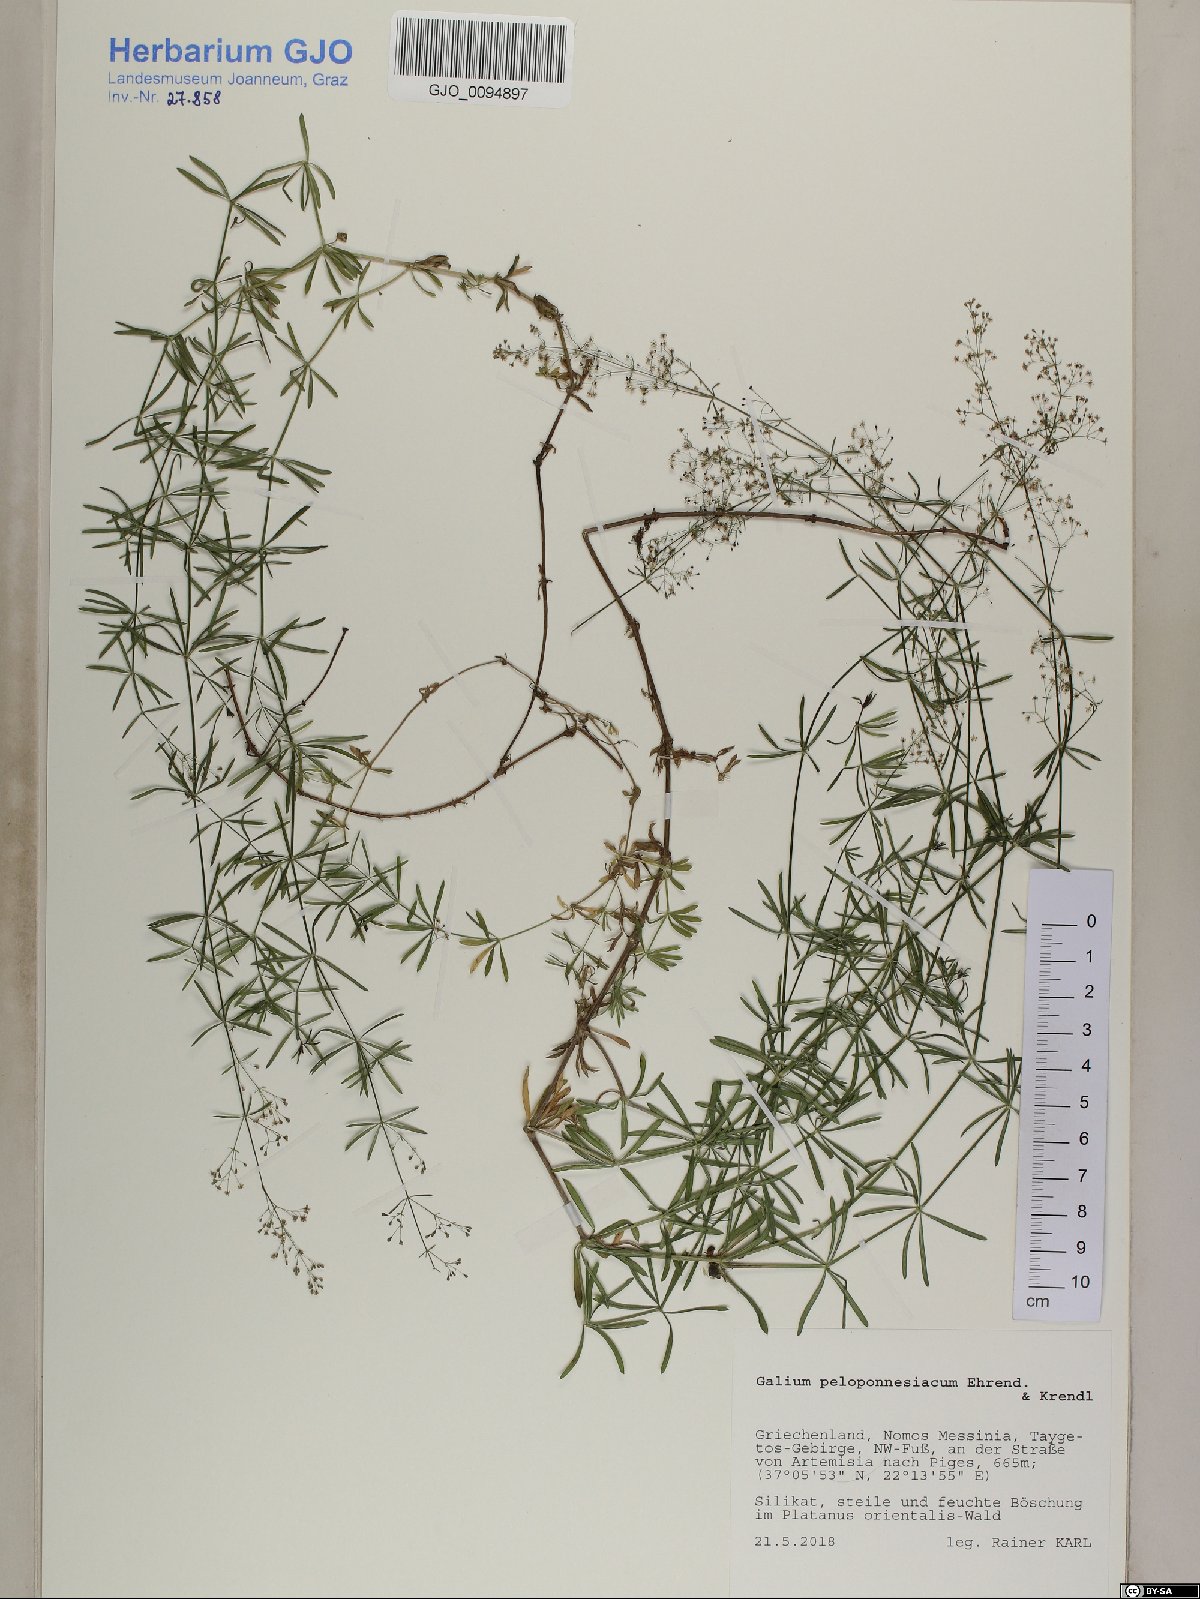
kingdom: Plantae
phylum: Tracheophyta
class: Magnoliopsida
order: Gentianales
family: Rubiaceae
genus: Galium
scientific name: Galium peloponnesiacum
